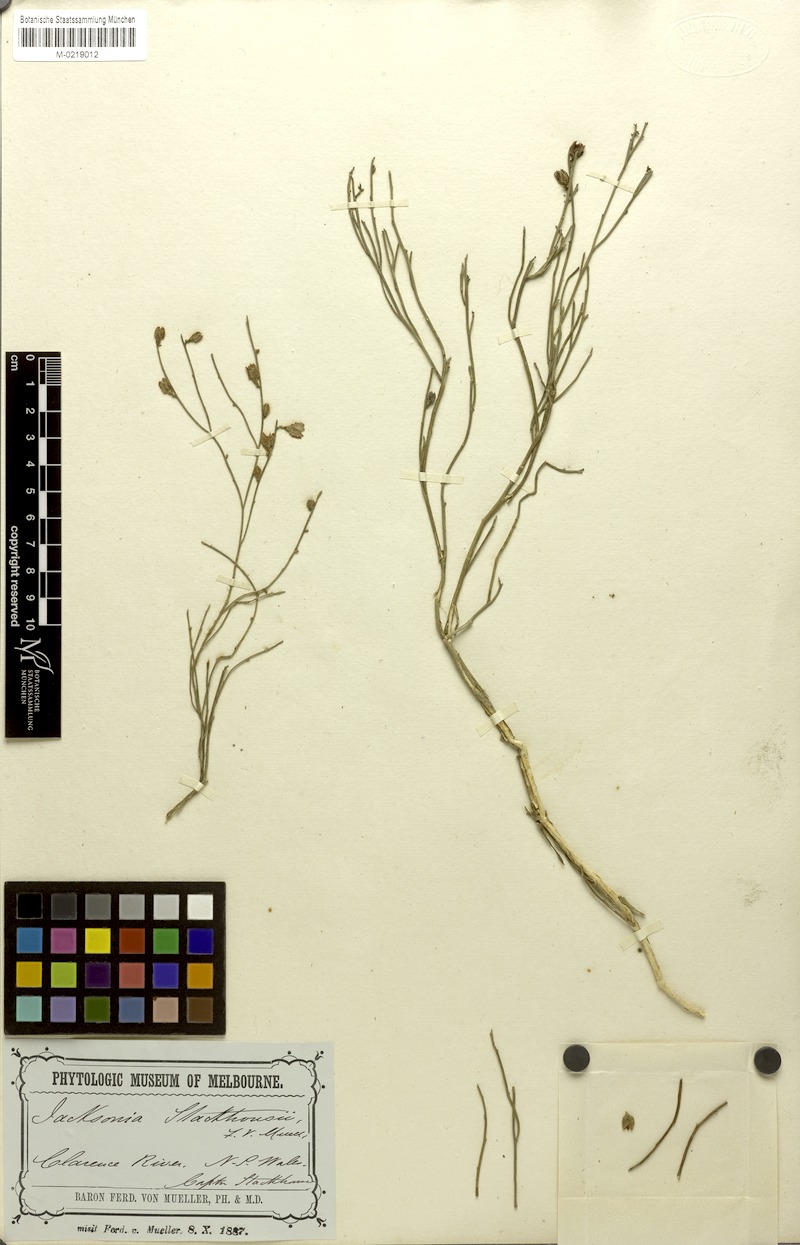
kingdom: Plantae
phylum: Tracheophyta
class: Magnoliopsida
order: Fabales
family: Fabaceae
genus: Jacksonia
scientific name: Jacksonia stackhousei
